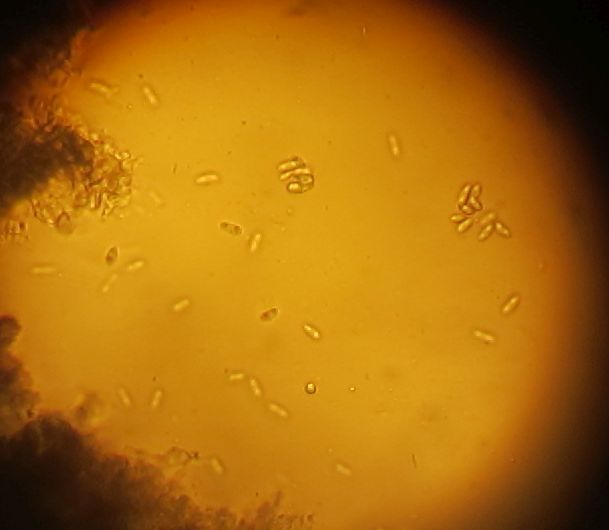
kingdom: Fungi
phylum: Ascomycota
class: Sordariomycetes
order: Diaporthales
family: Diaporthaceae
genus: Diaporthe
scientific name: Diaporthe samaricola
